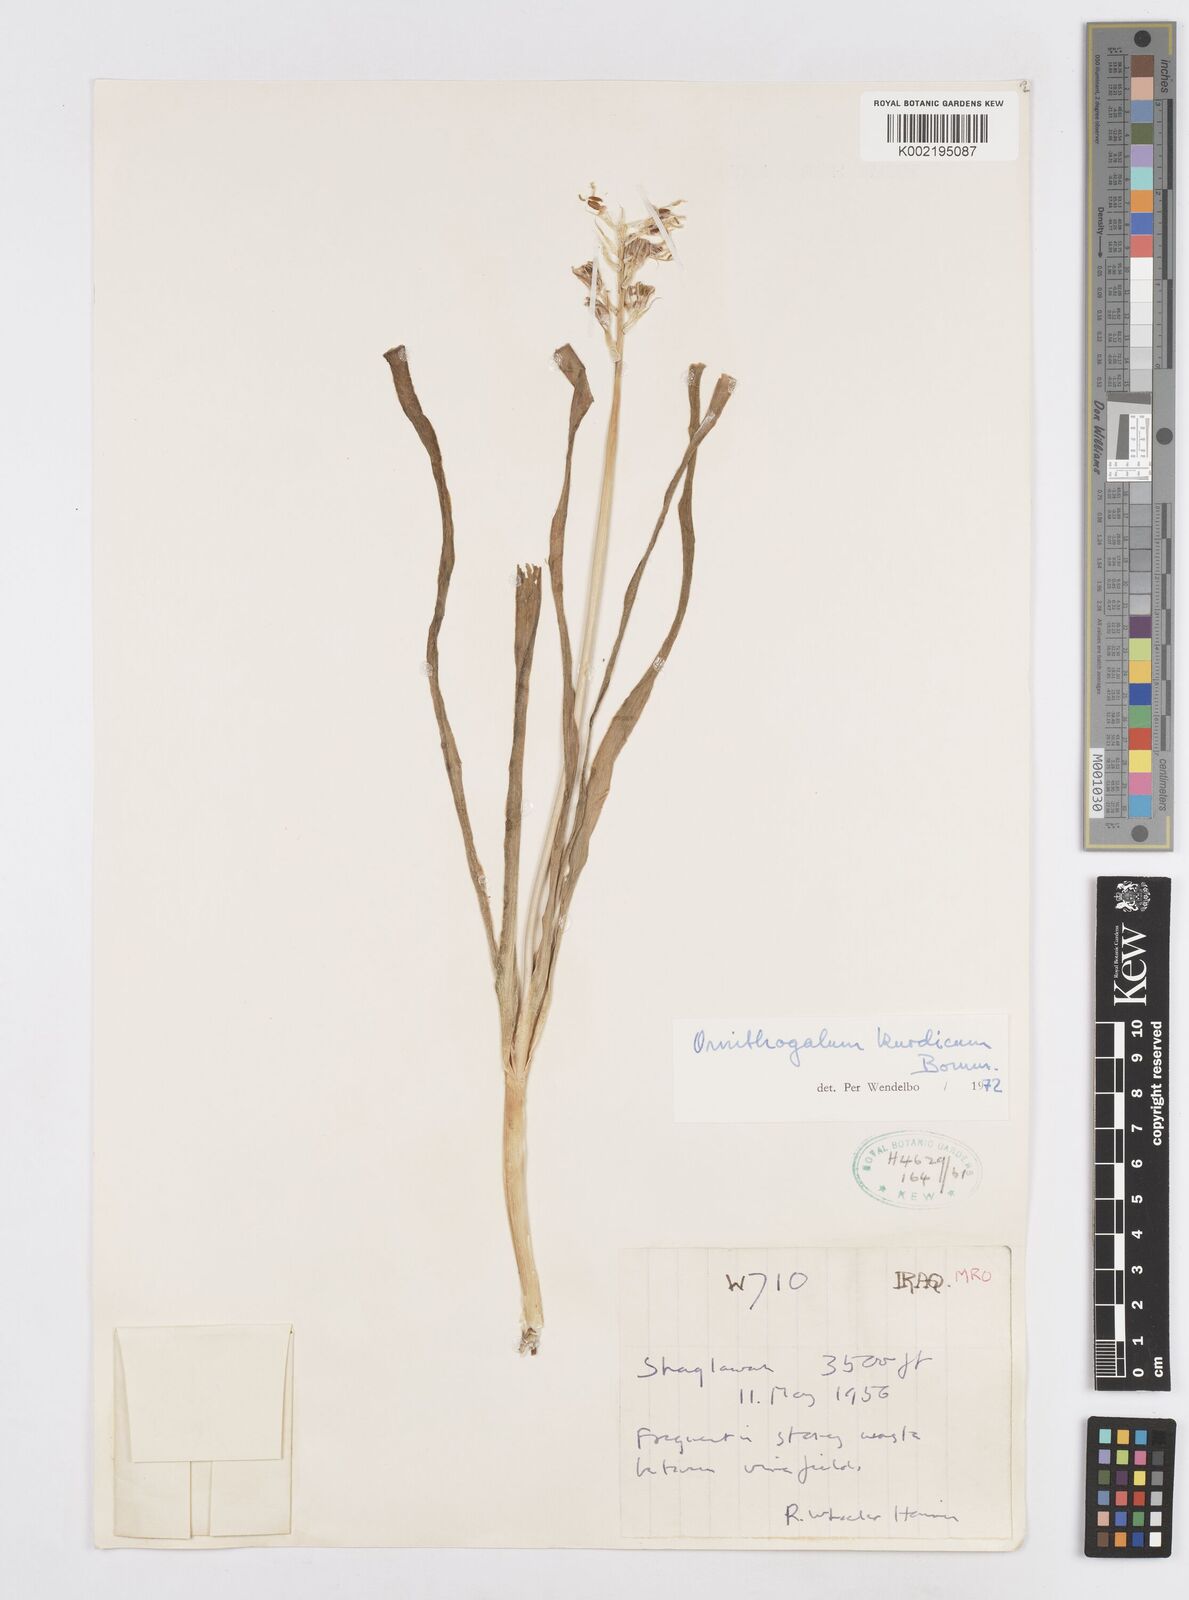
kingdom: Plantae
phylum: Tracheophyta
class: Liliopsida
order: Asparagales
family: Asparagaceae
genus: Ornithogalum
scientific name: Ornithogalum kurdicum
